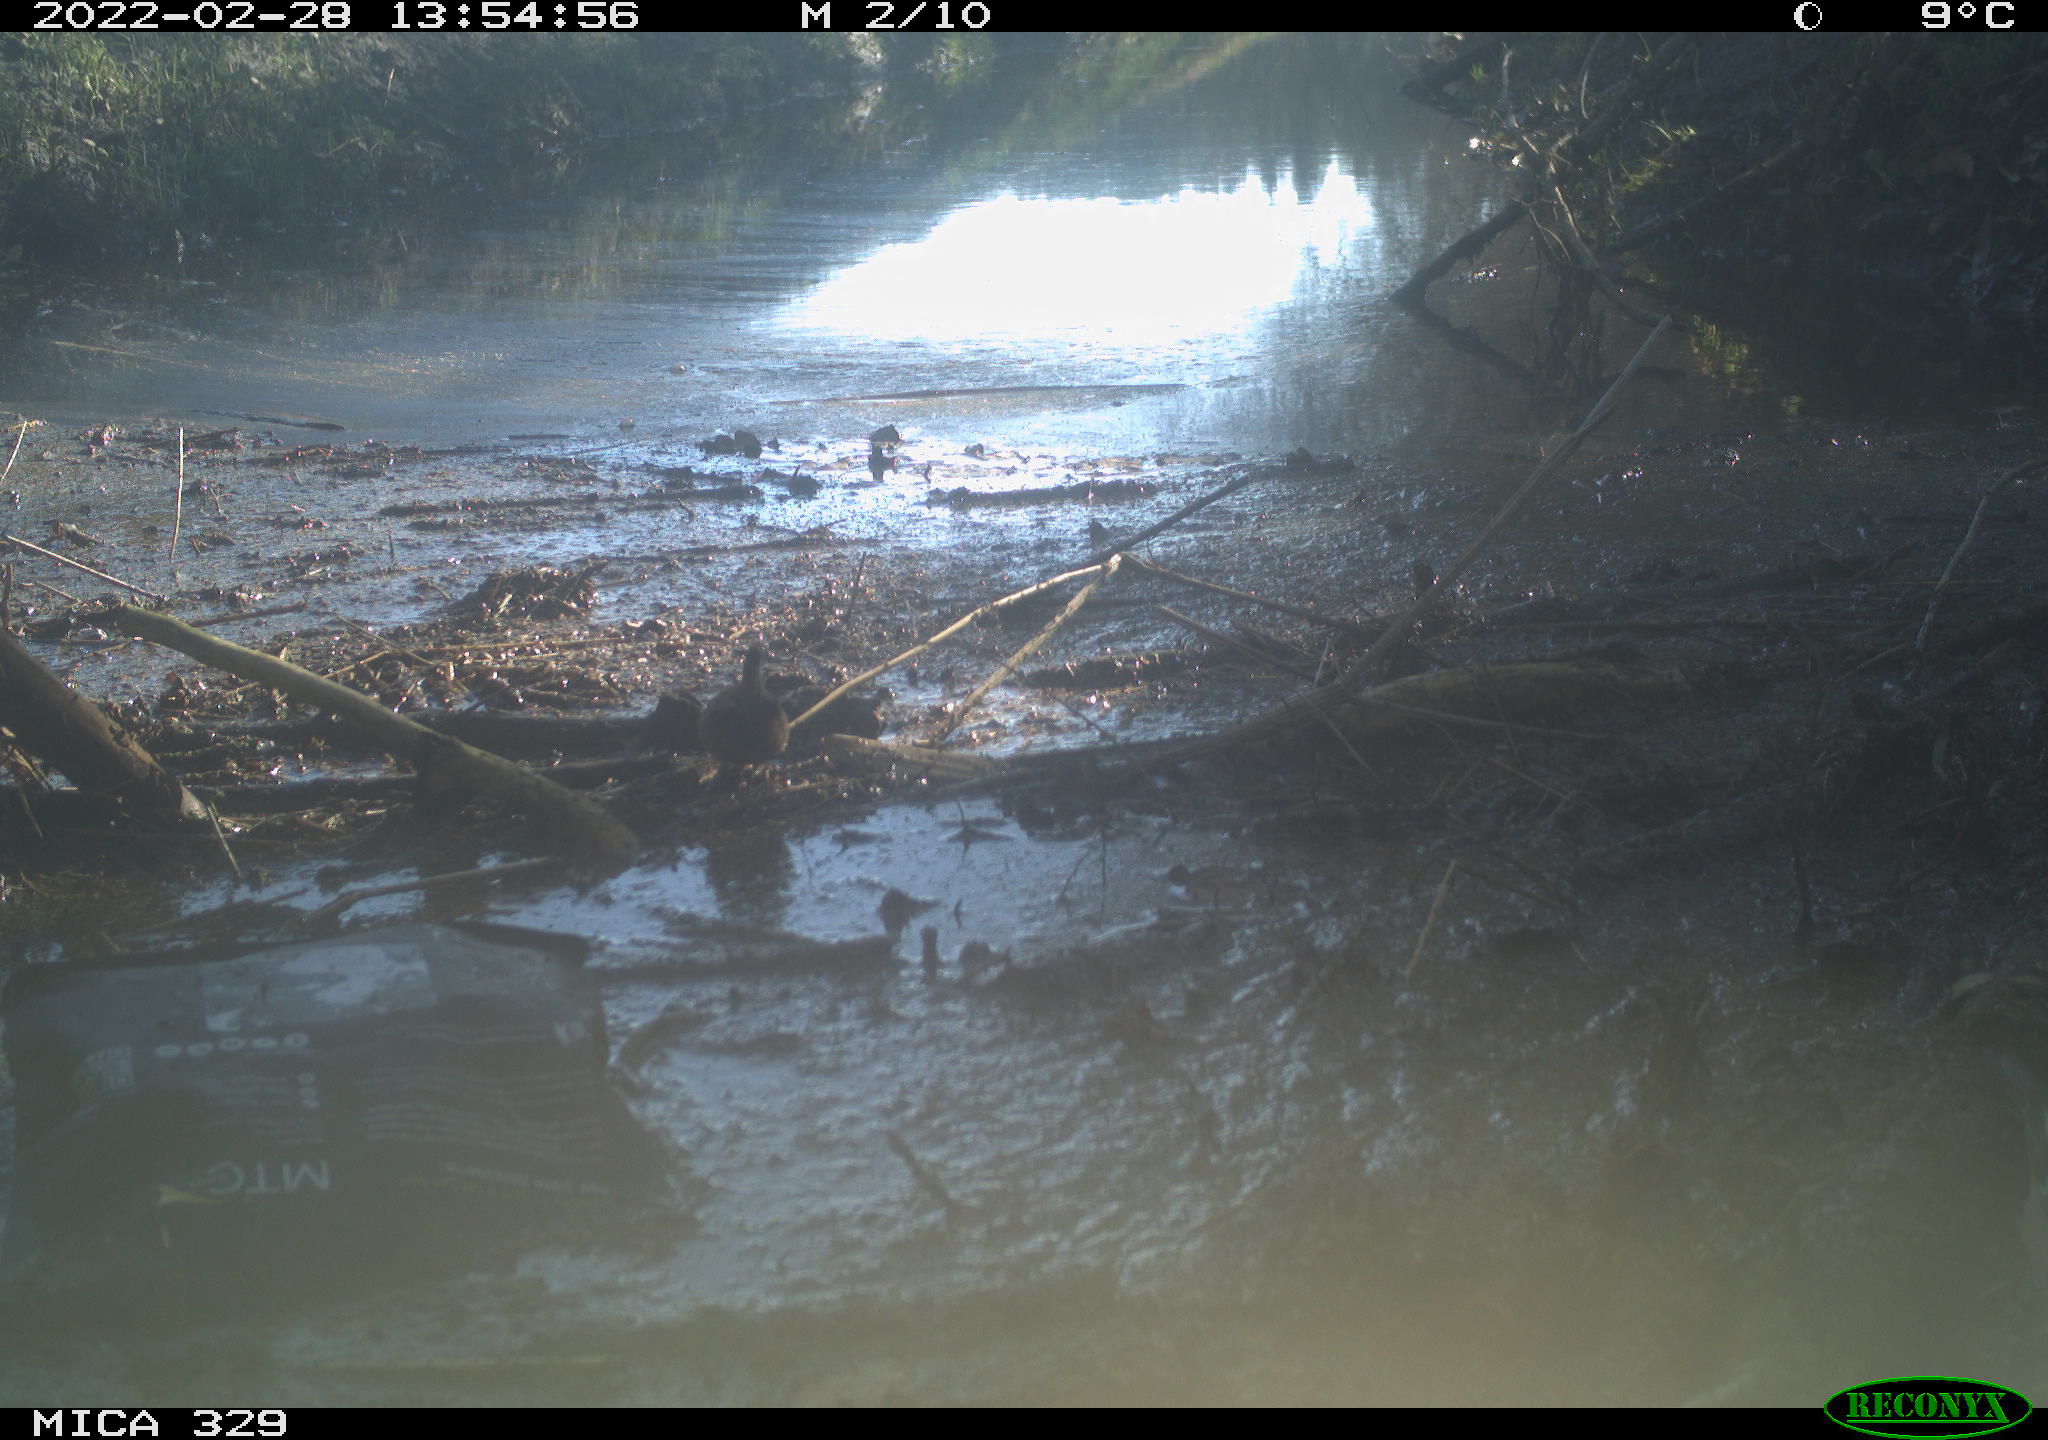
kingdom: Animalia
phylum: Chordata
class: Aves
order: Passeriformes
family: Troglodytidae
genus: Troglodytes
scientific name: Troglodytes troglodytes
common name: Eurasian wren
